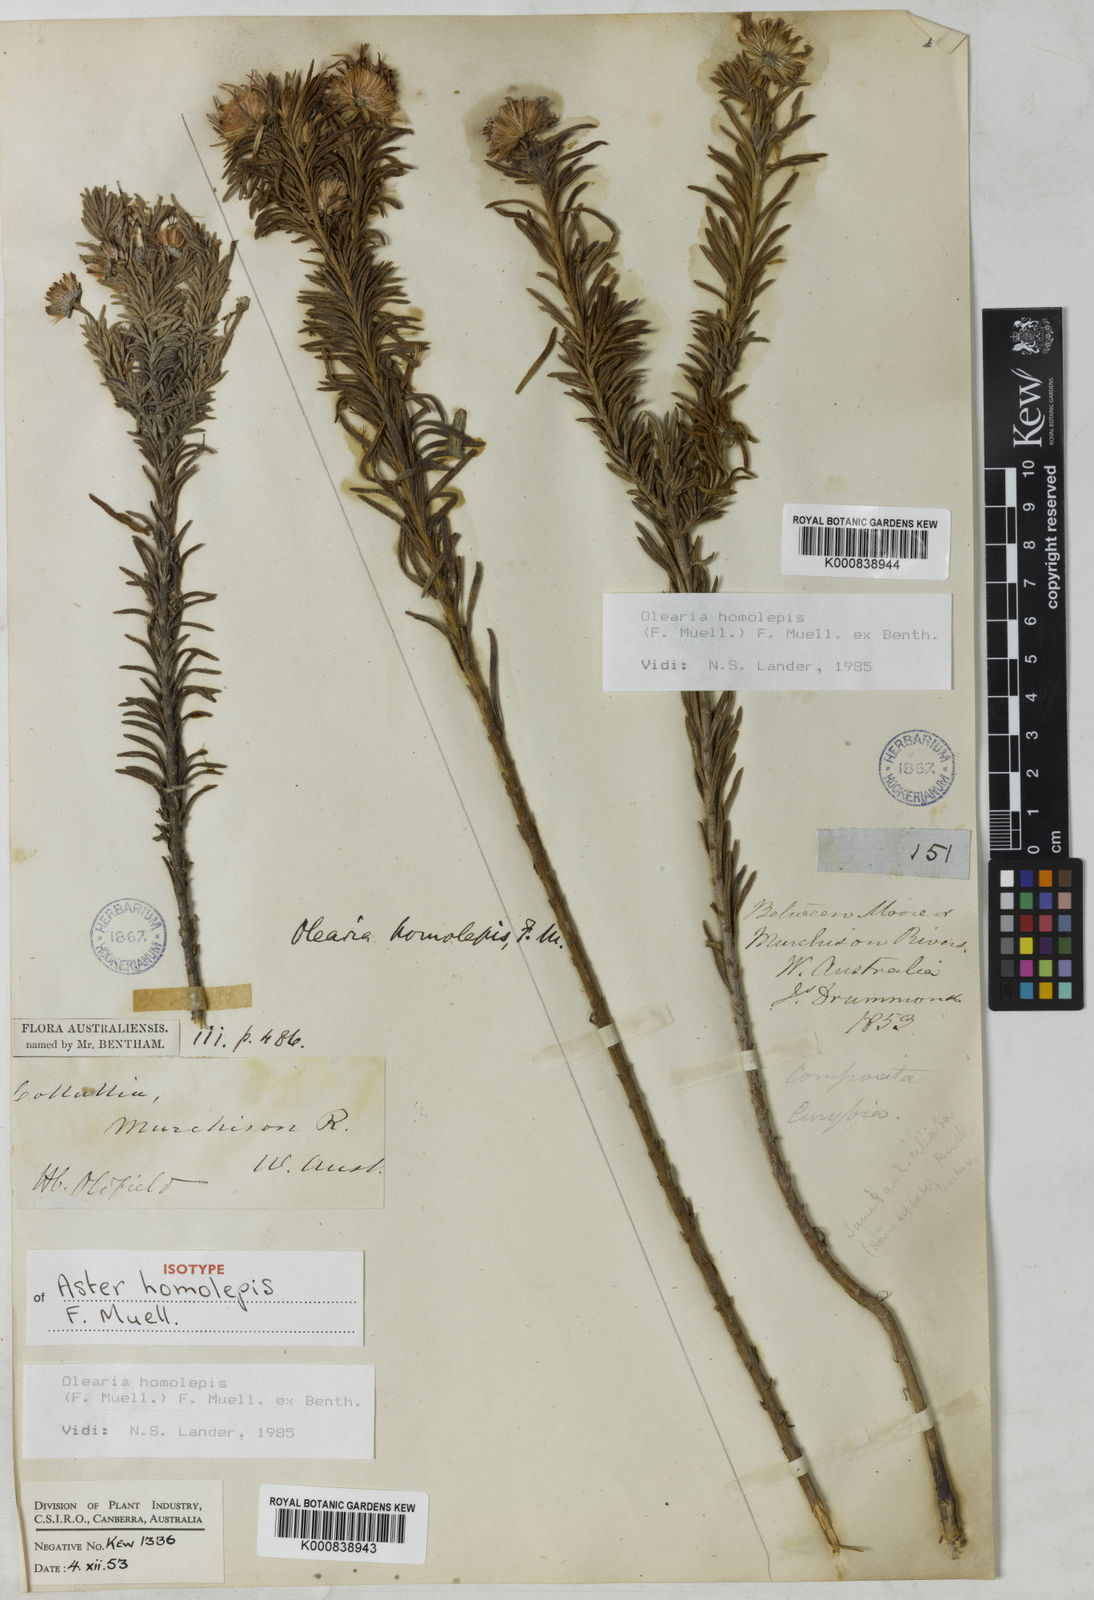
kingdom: Plantae
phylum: Tracheophyta
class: Magnoliopsida
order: Asterales
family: Asteraceae
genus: Olearia
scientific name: Olearia homolepis
